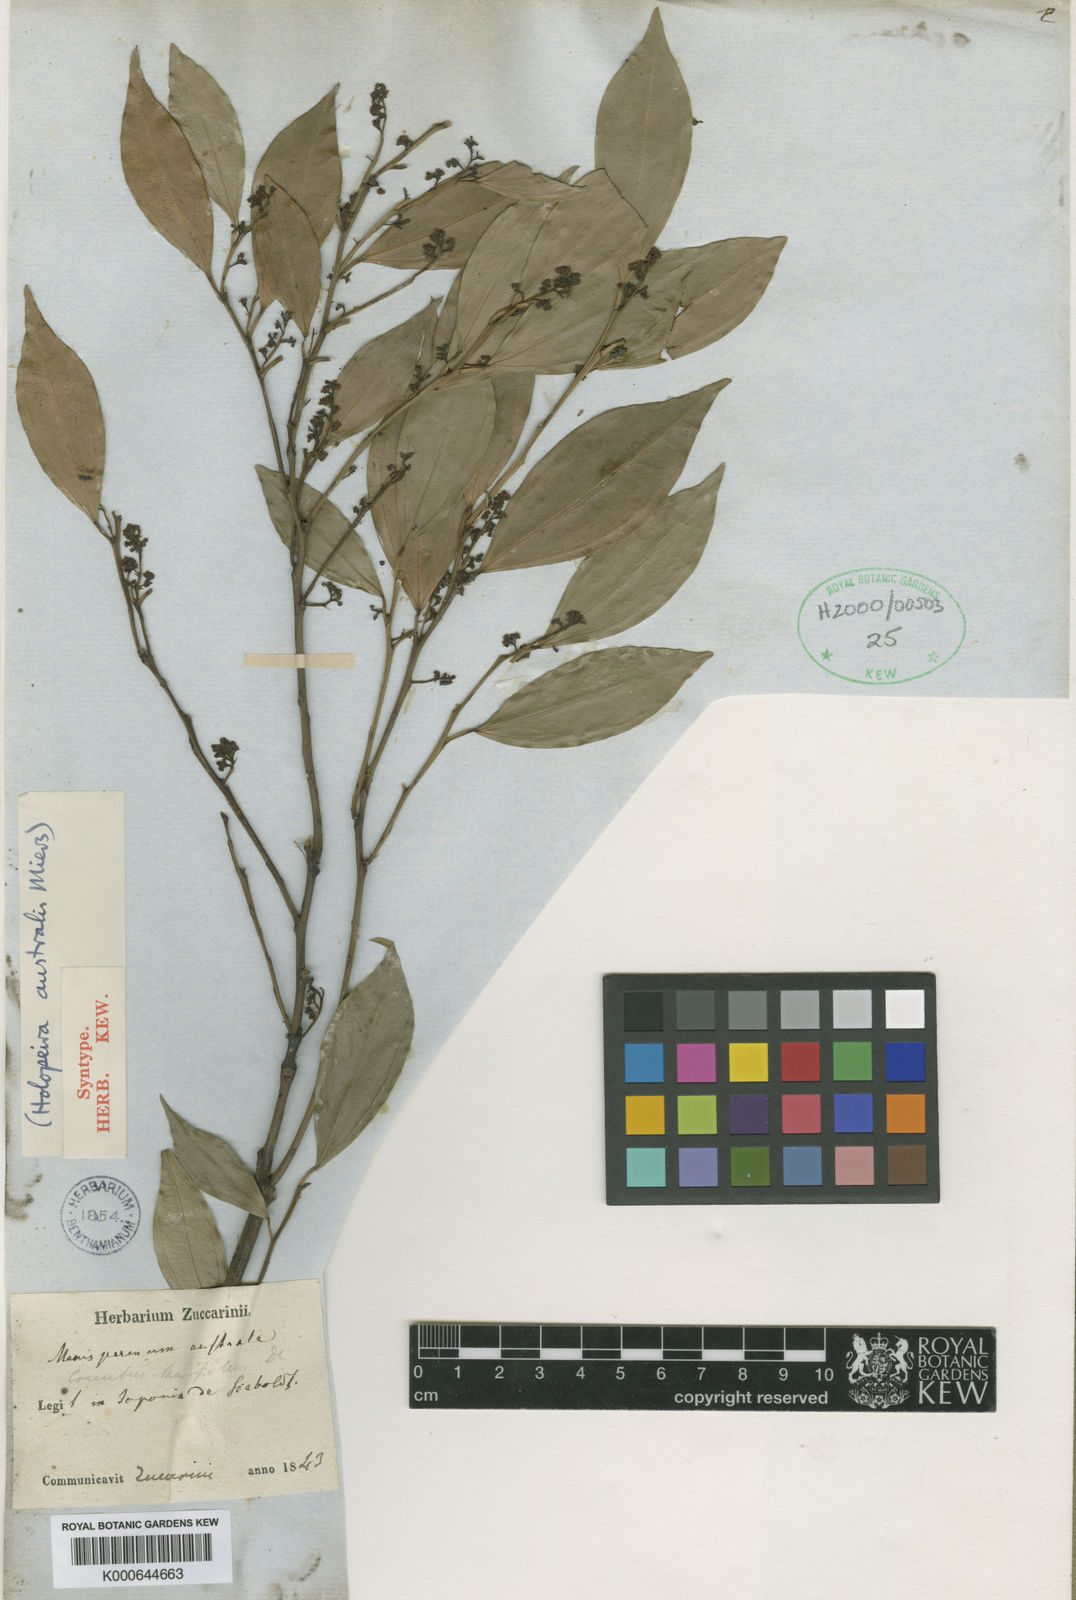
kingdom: Plantae
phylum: Tracheophyta
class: Magnoliopsida
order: Ranunculales
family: Menispermaceae
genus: Cocculus
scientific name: Cocculus laurifolius
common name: Laurel-leaf snailseed
